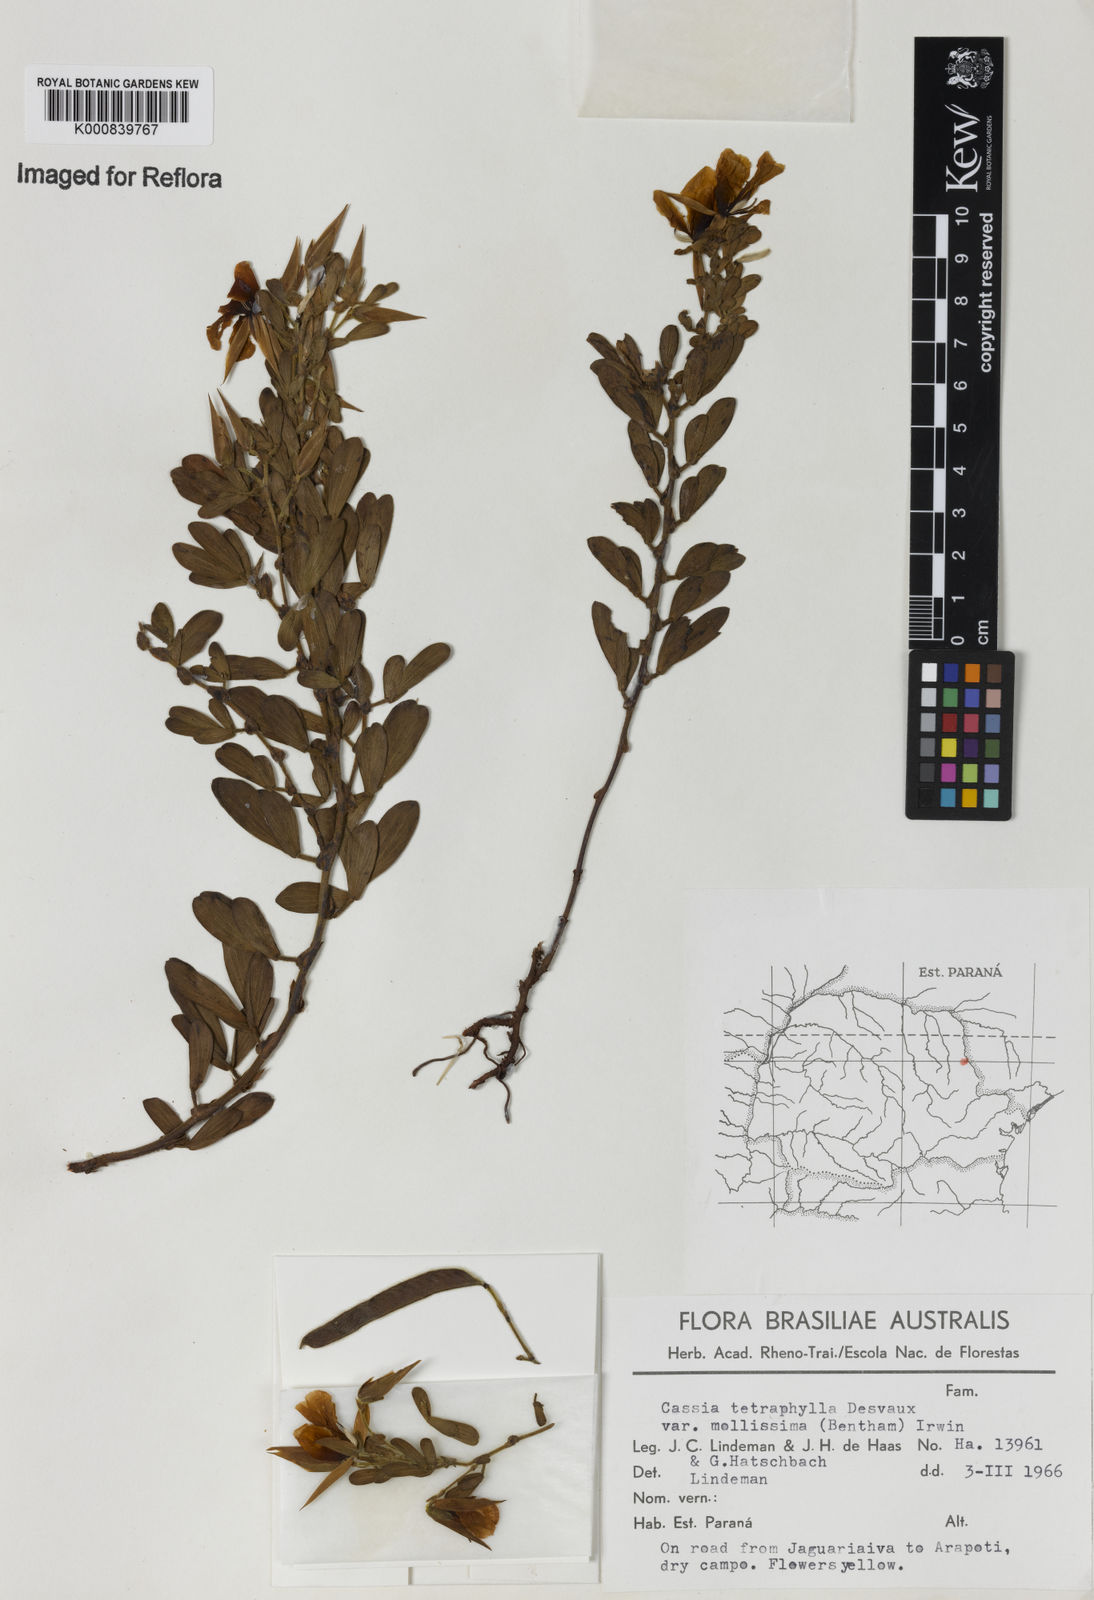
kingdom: Plantae
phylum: Tracheophyta
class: Magnoliopsida
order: Fabales
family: Fabaceae
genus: Chamaecrista
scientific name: Chamaecrista desvauxii
